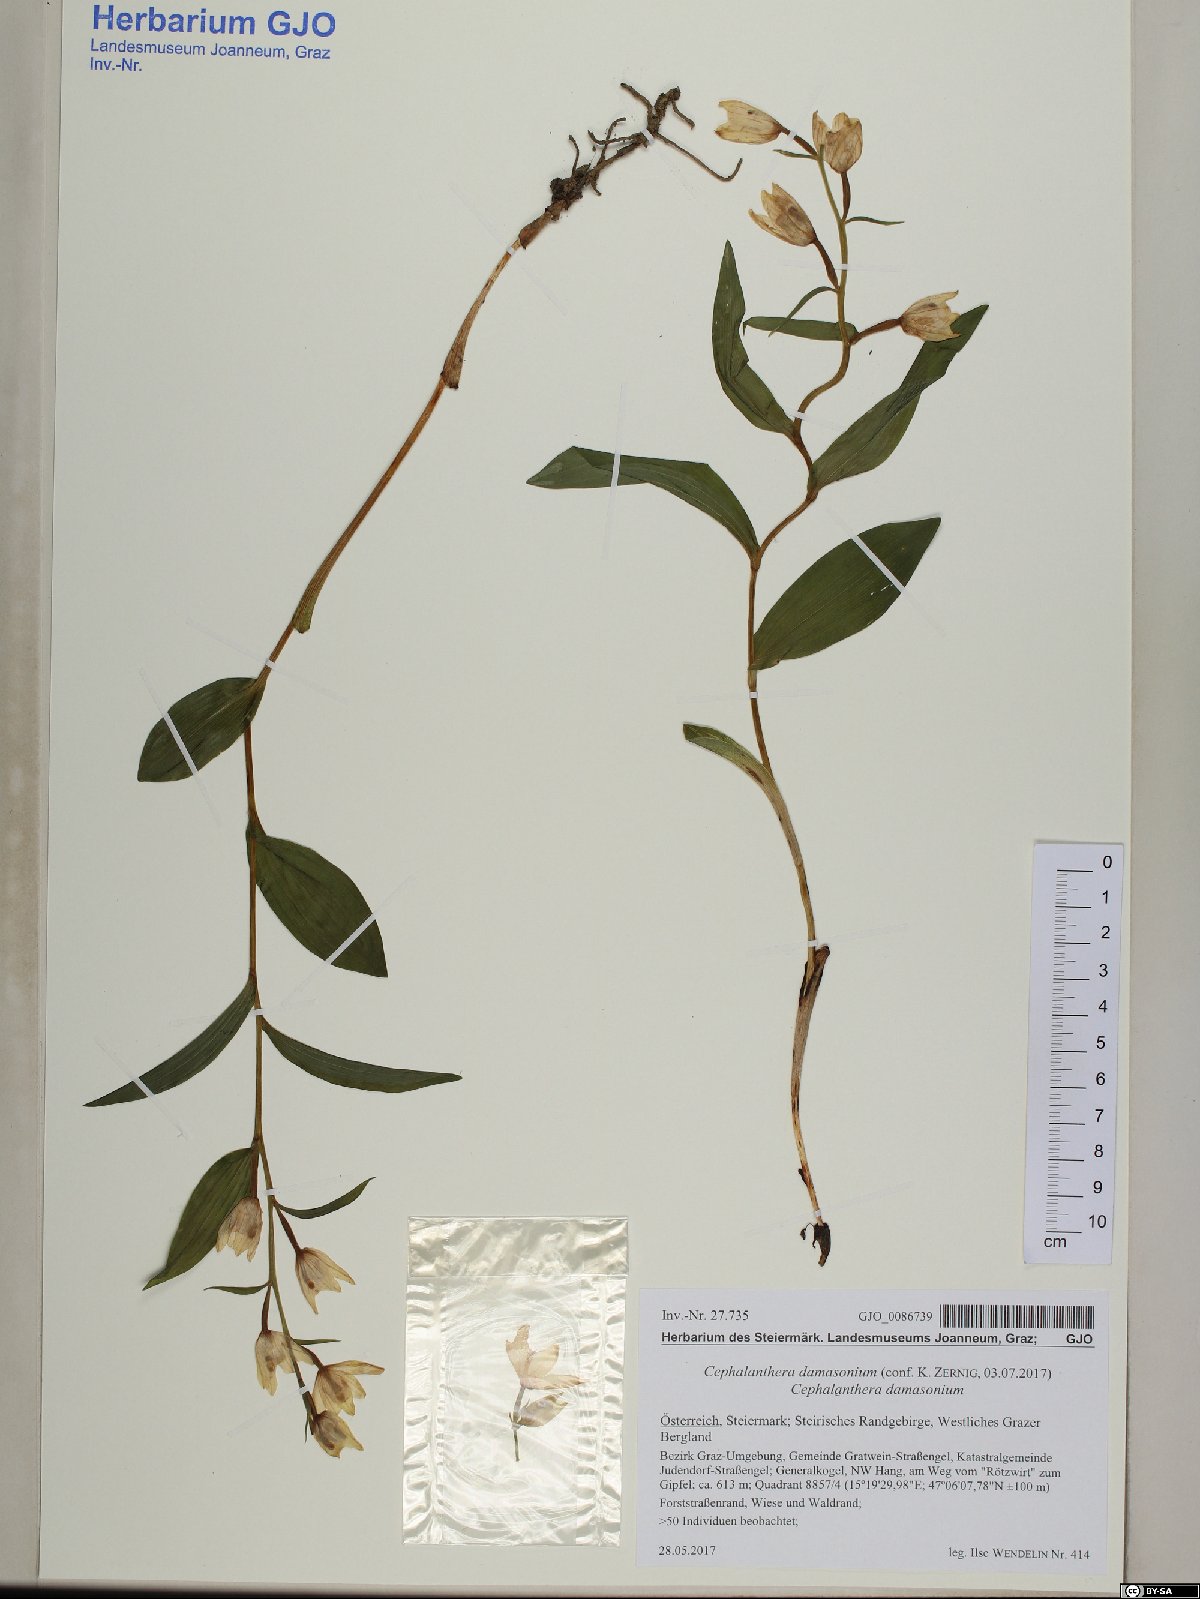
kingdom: Plantae
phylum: Tracheophyta
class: Liliopsida
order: Asparagales
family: Orchidaceae
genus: Cephalanthera
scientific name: Cephalanthera damasonium
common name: White helleborine
